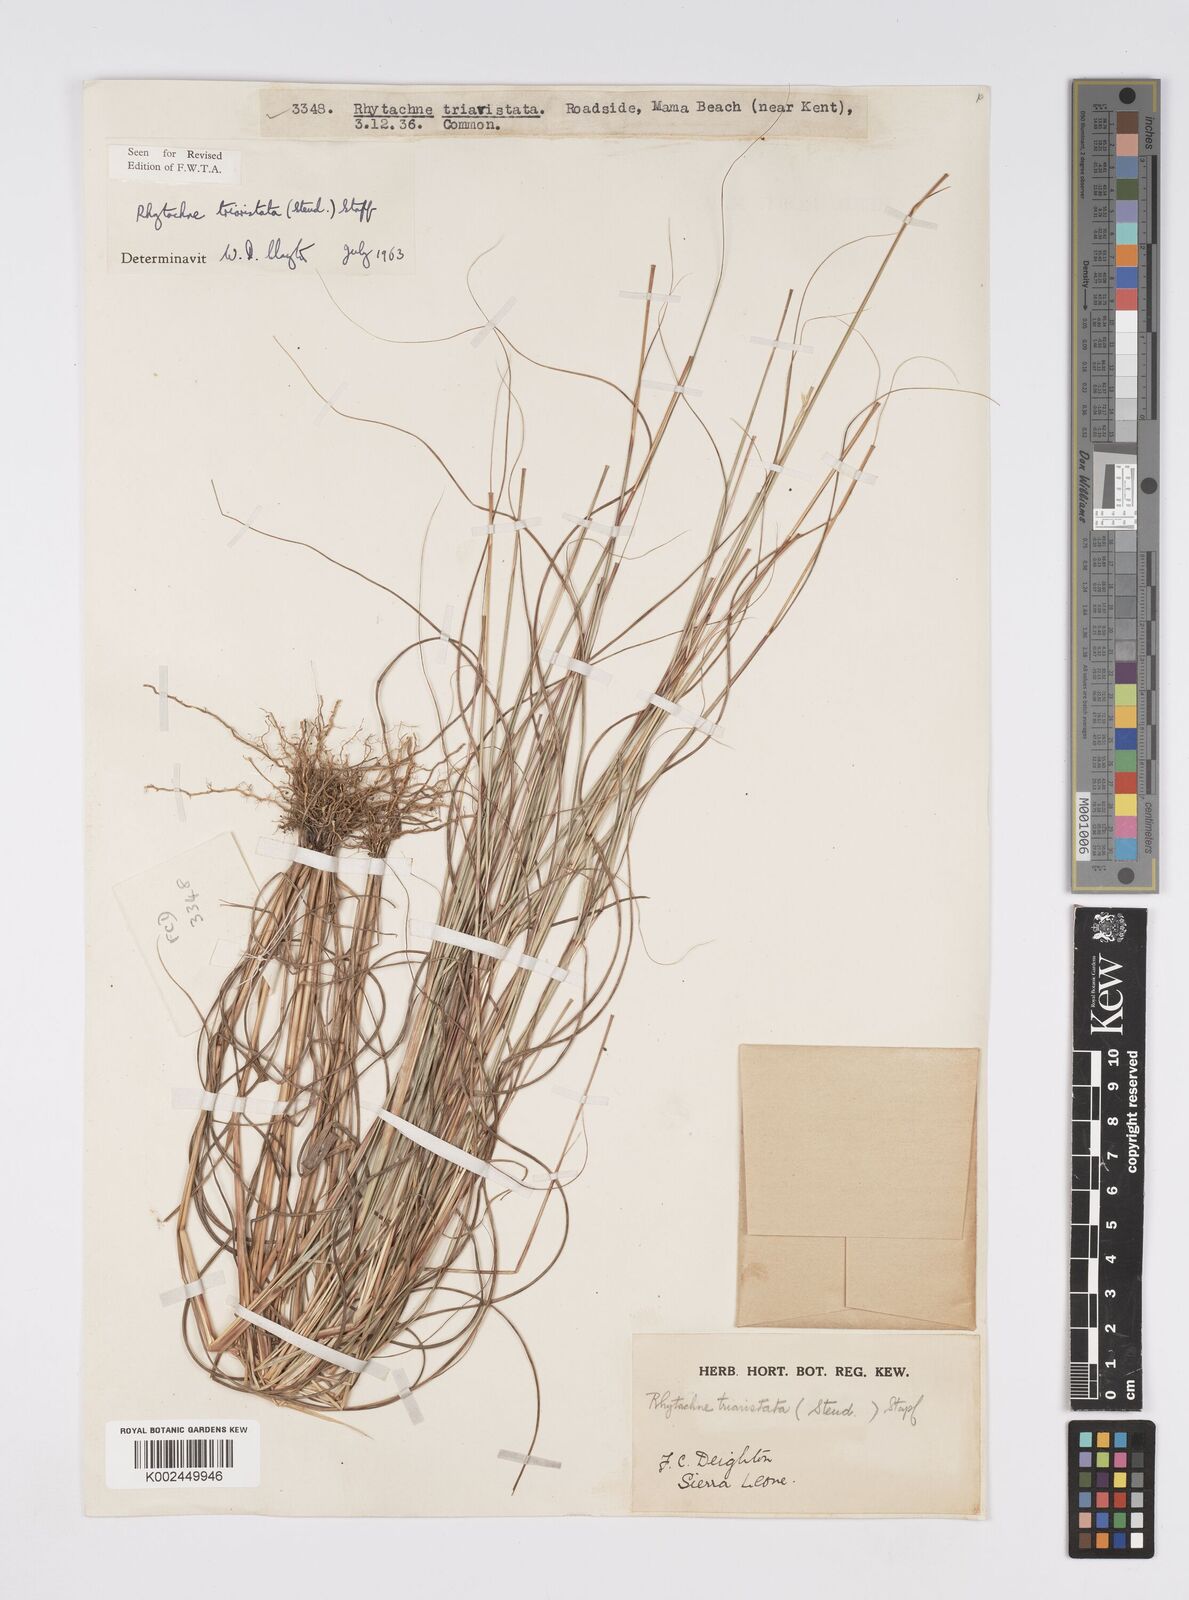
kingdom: Plantae
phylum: Tracheophyta
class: Liliopsida
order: Poales
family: Poaceae
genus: Rhytachne
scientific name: Rhytachne triaristata
